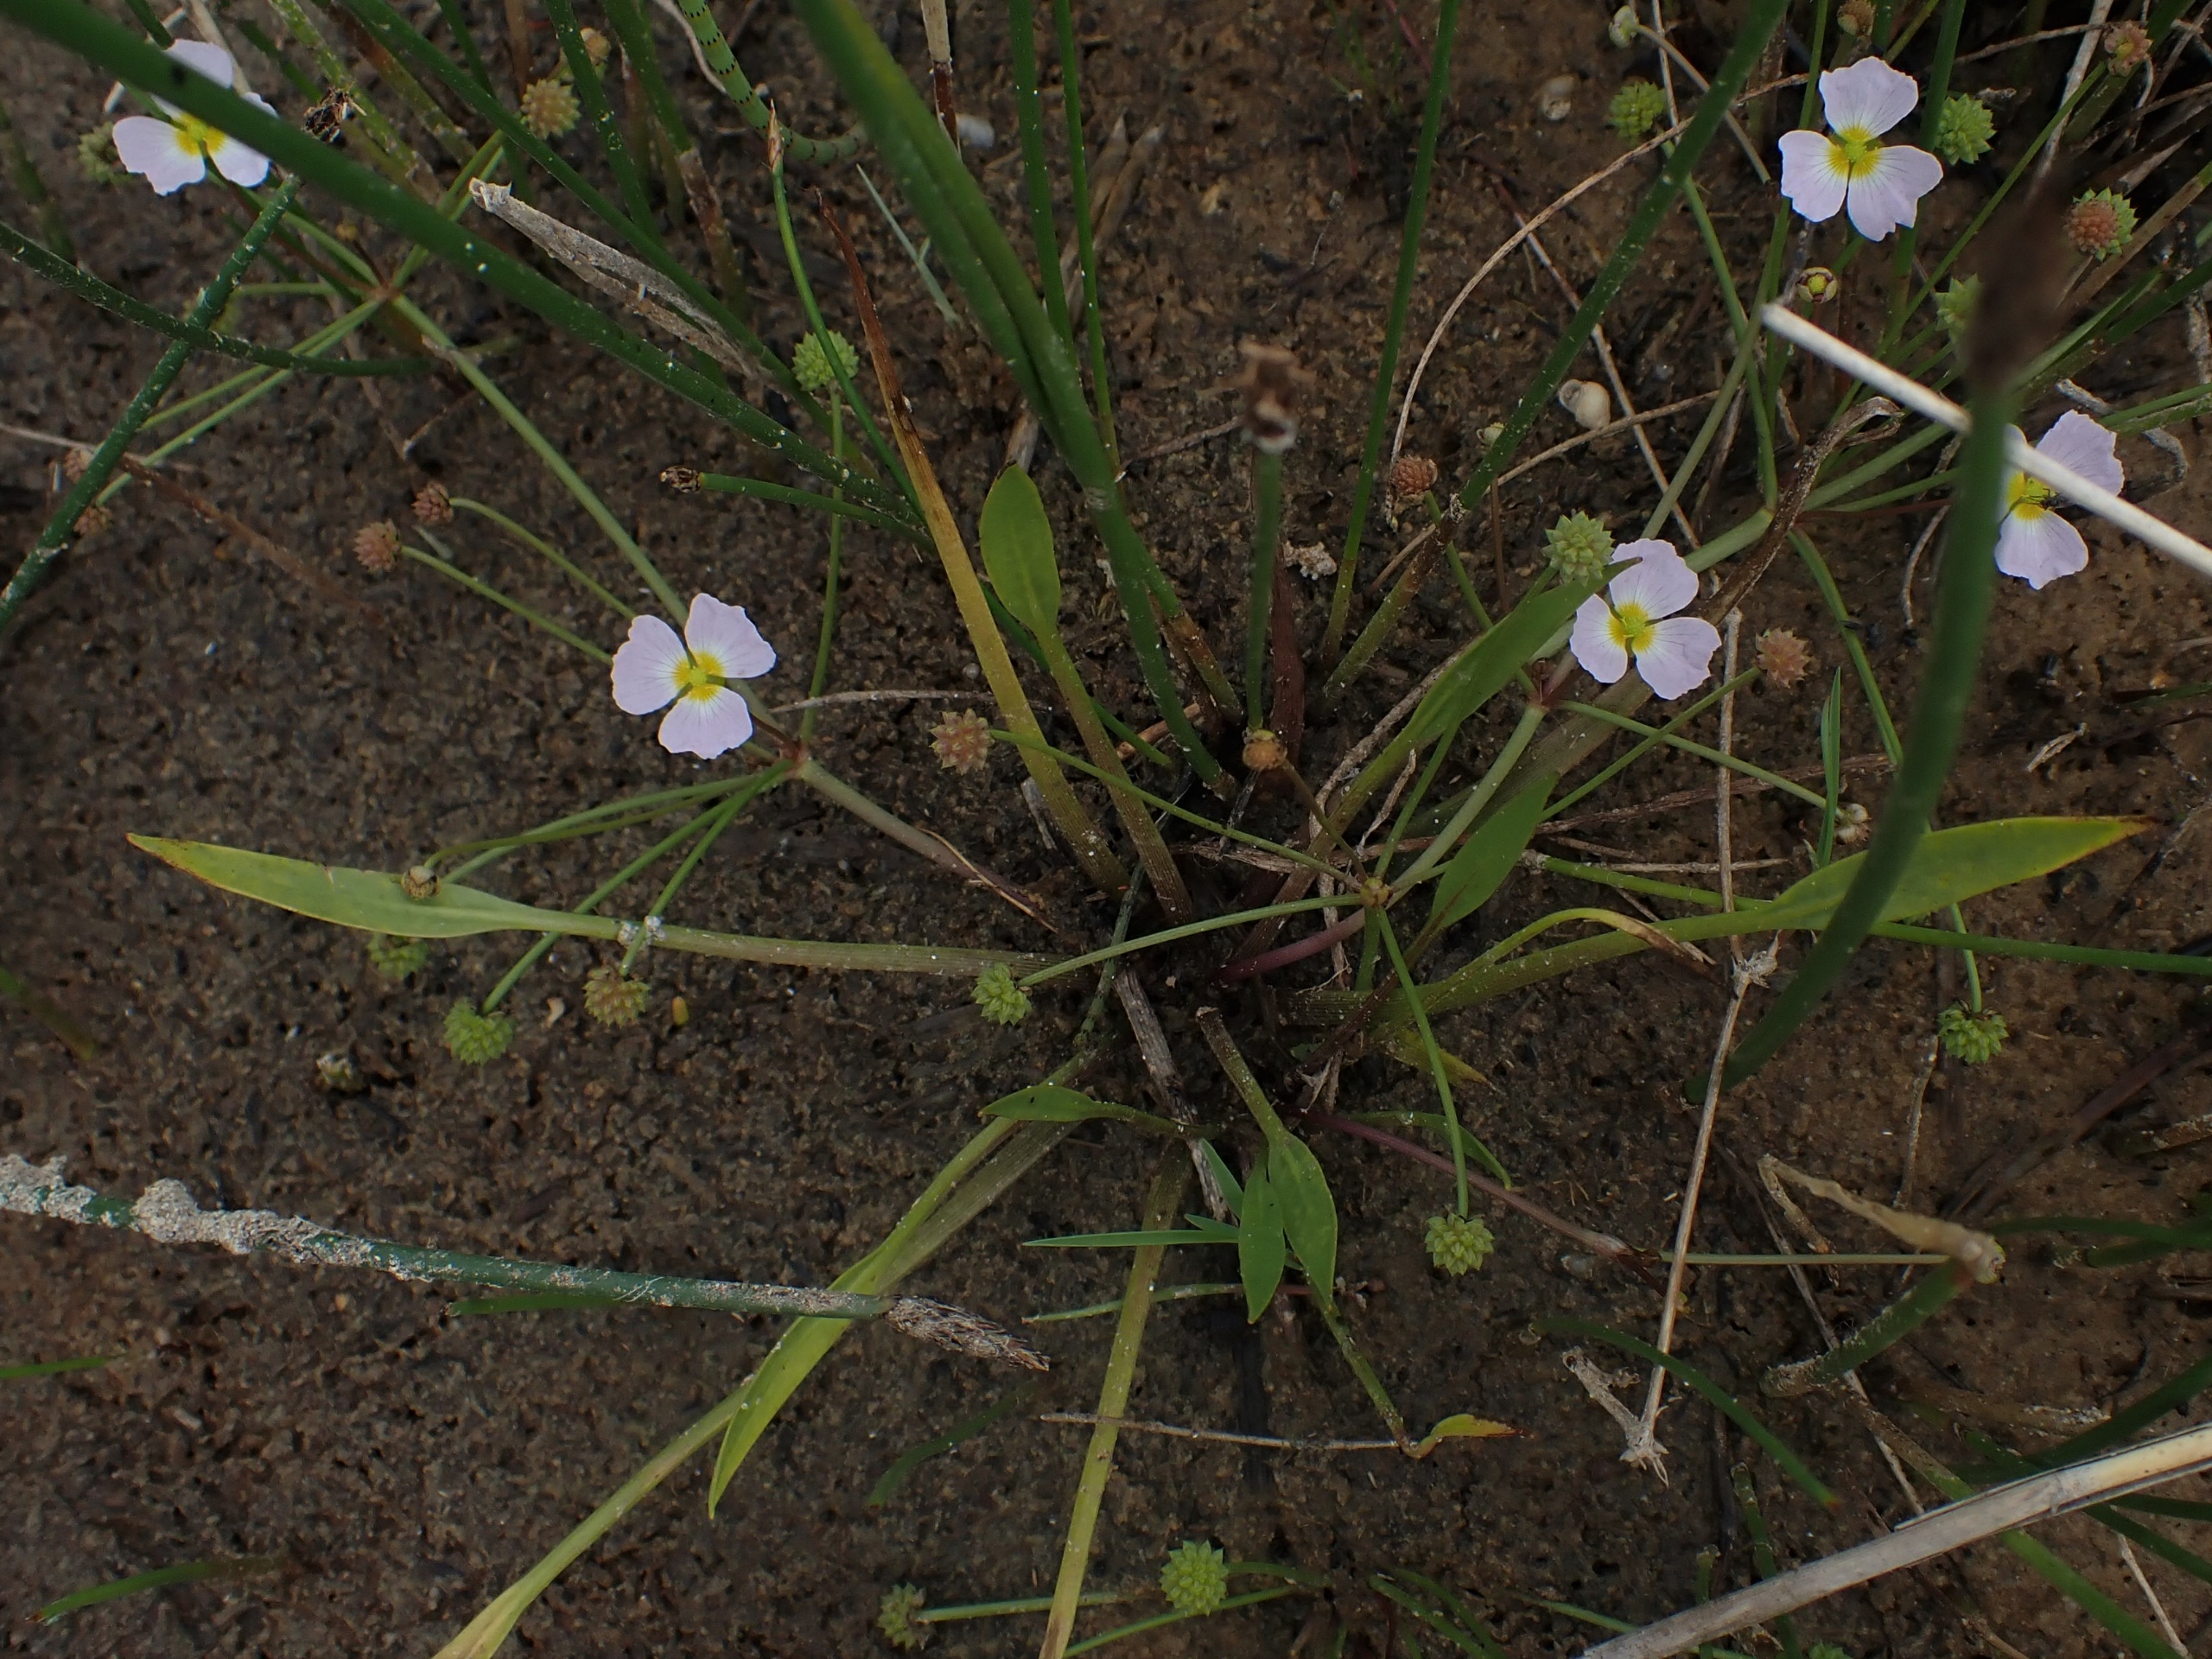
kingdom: Plantae
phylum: Tracheophyta
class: Liliopsida
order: Alismatales
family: Alismataceae
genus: Baldellia
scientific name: Baldellia ranunculoides
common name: Søpryd
